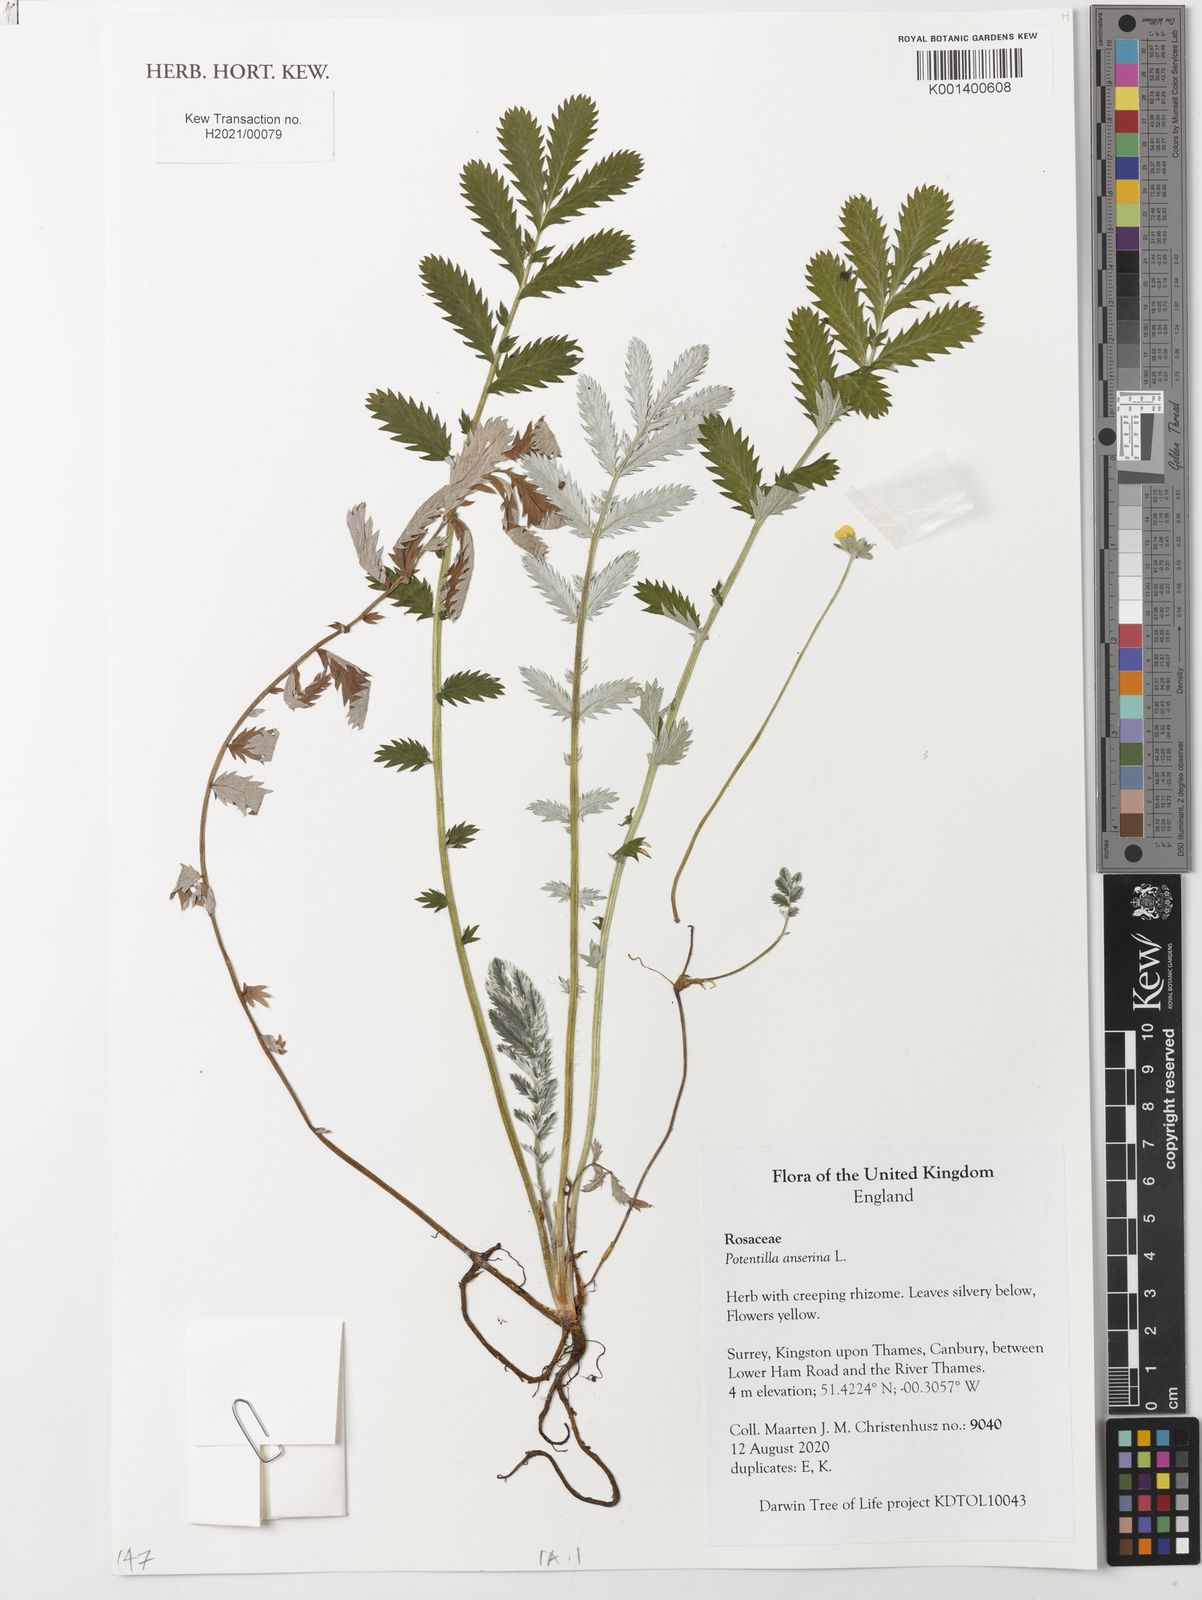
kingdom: Plantae
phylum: Tracheophyta
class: Magnoliopsida
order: Rosales
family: Rosaceae
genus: Argentina
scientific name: Argentina anserina
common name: Common silverweed
